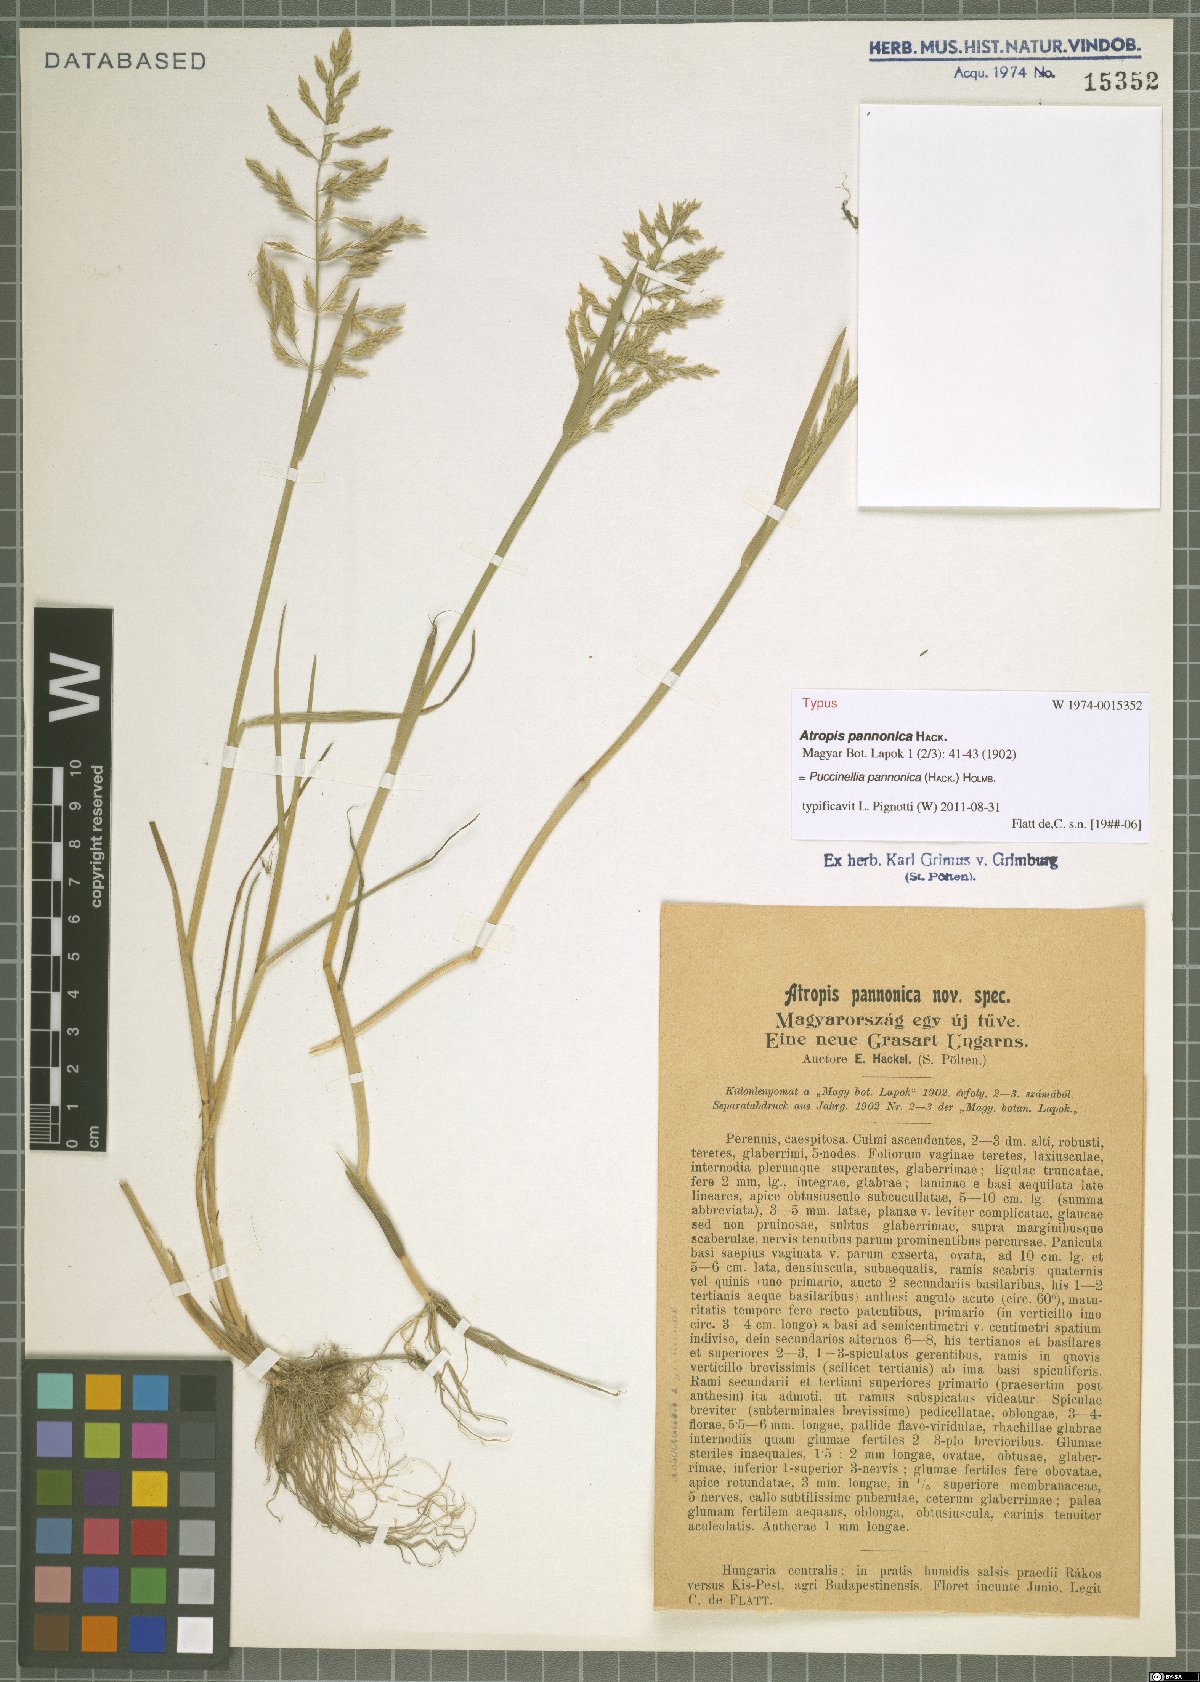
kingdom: Plantae
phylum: Tracheophyta
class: Liliopsida
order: Poales
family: Poaceae
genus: Puccinellia
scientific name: Puccinellia pannonica
